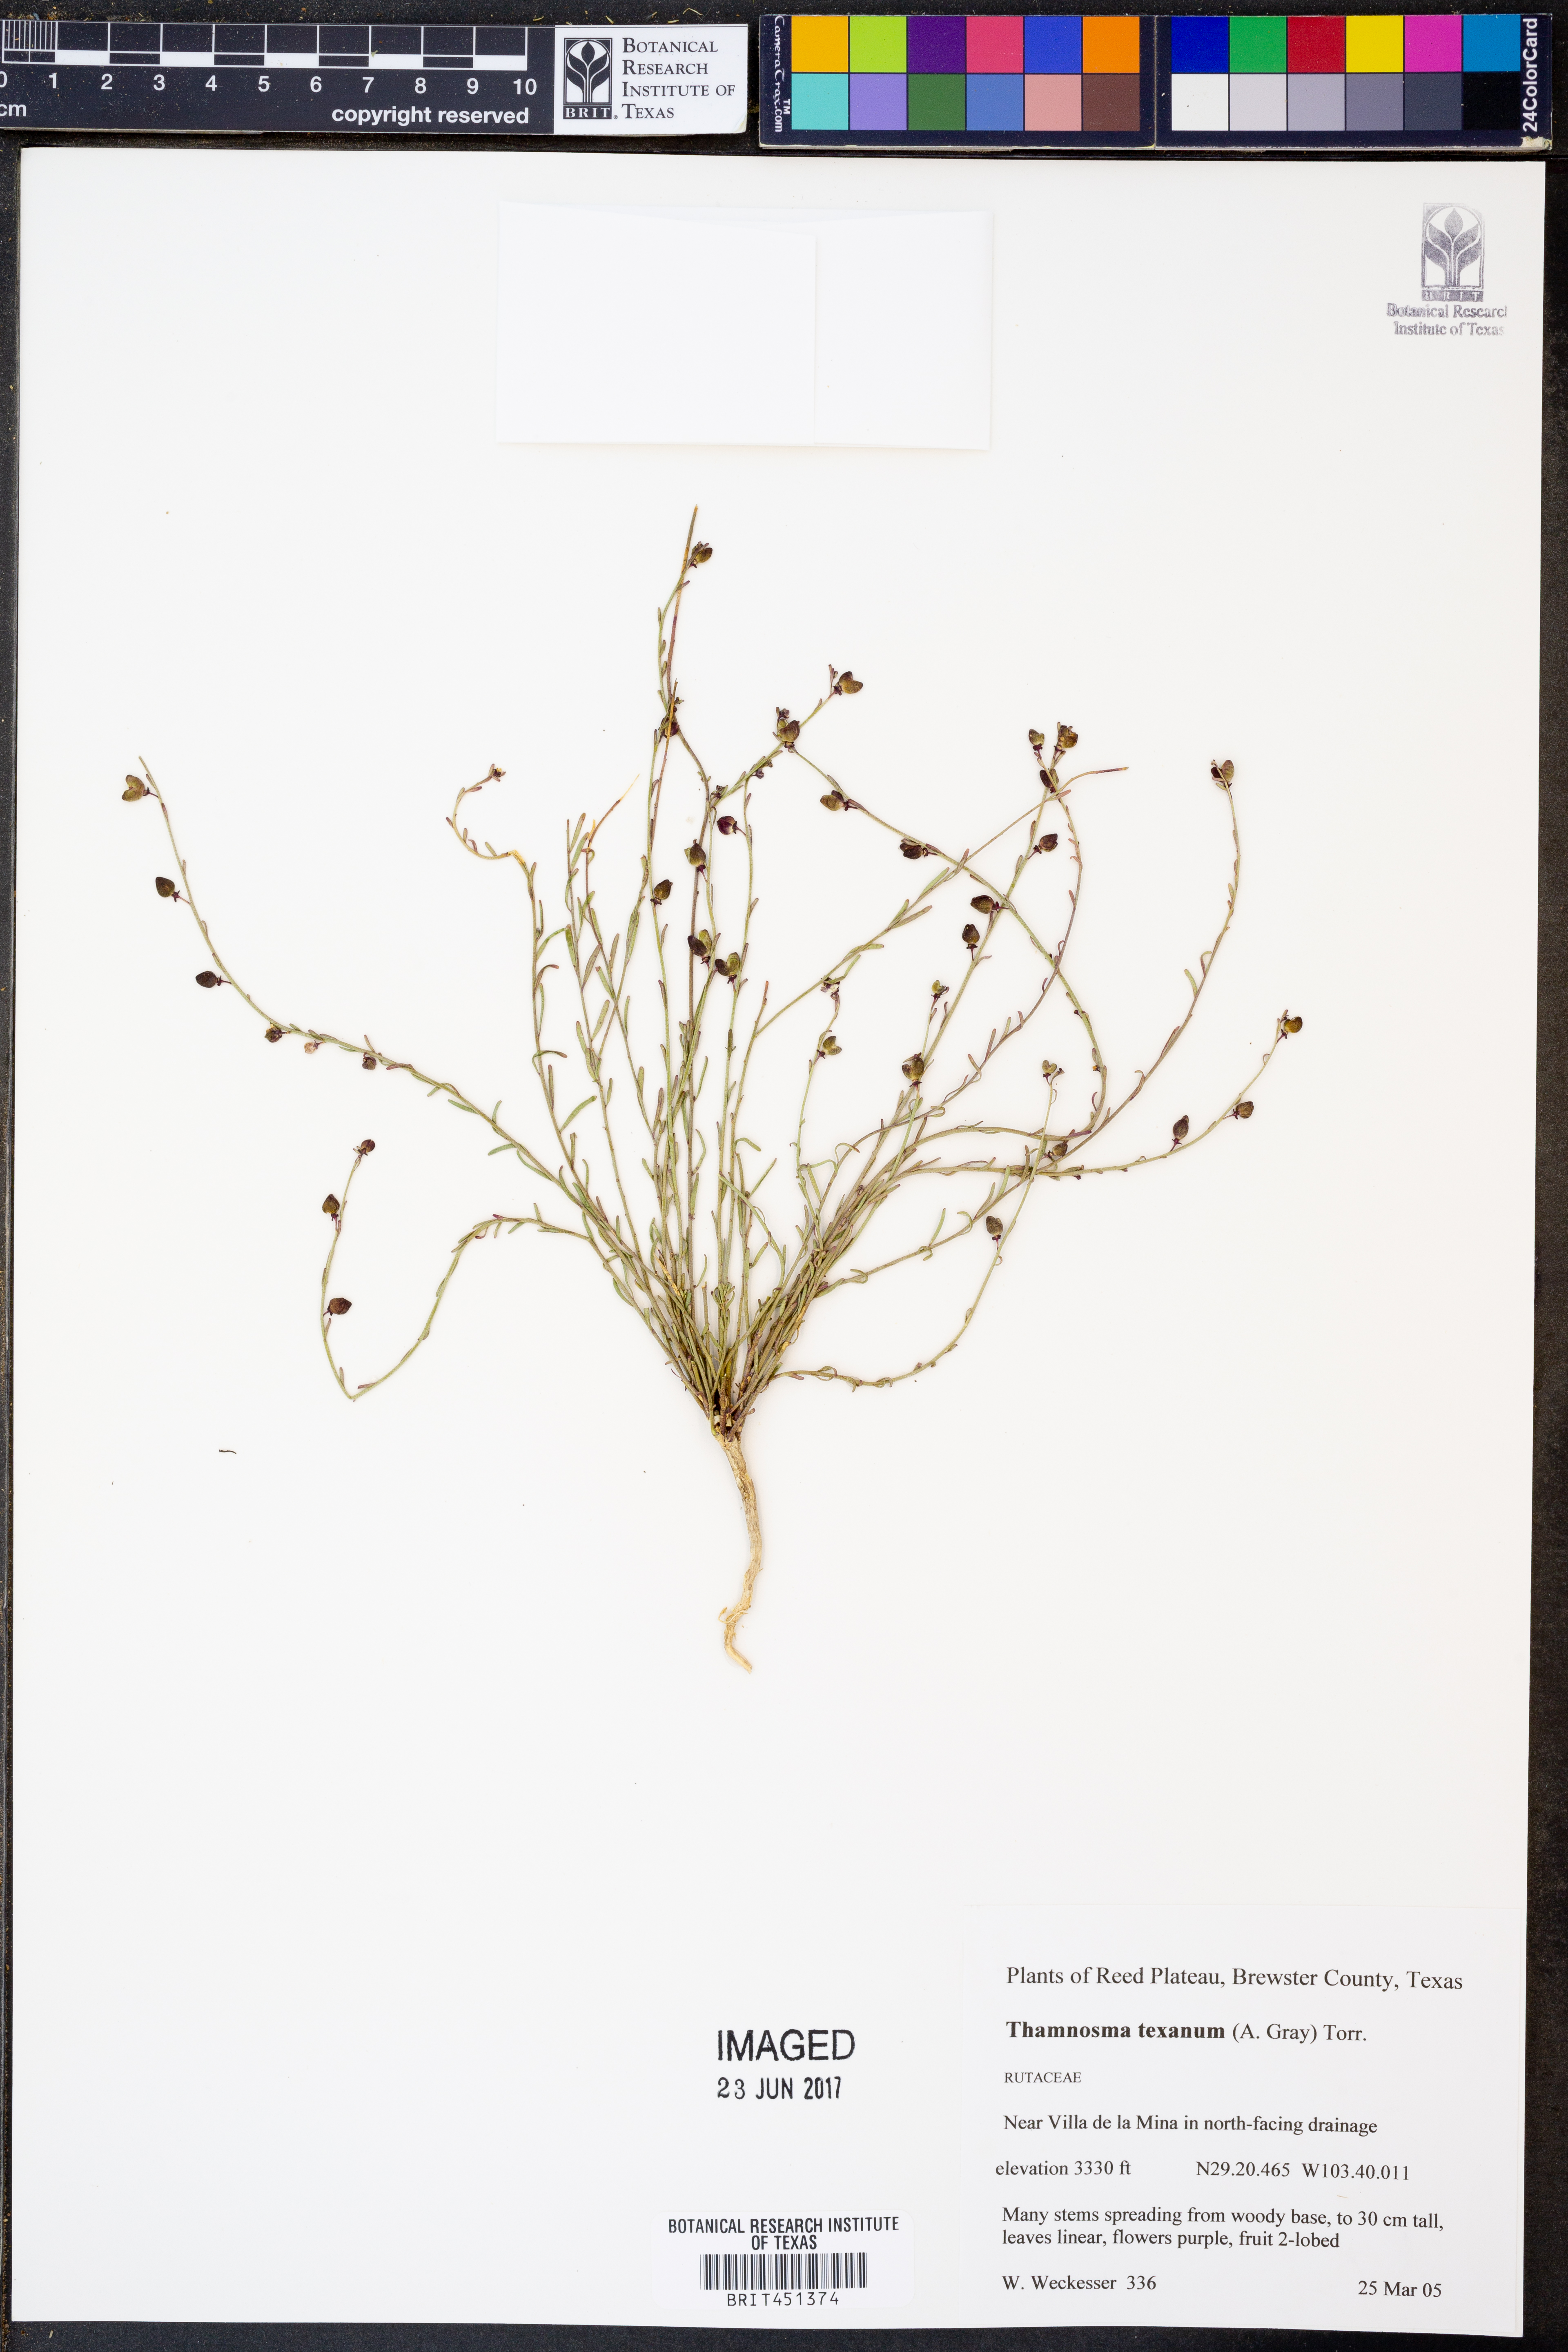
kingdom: Plantae
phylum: Tracheophyta
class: Magnoliopsida
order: Sapindales
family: Rutaceae
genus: Thamnosma
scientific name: Thamnosma texana
